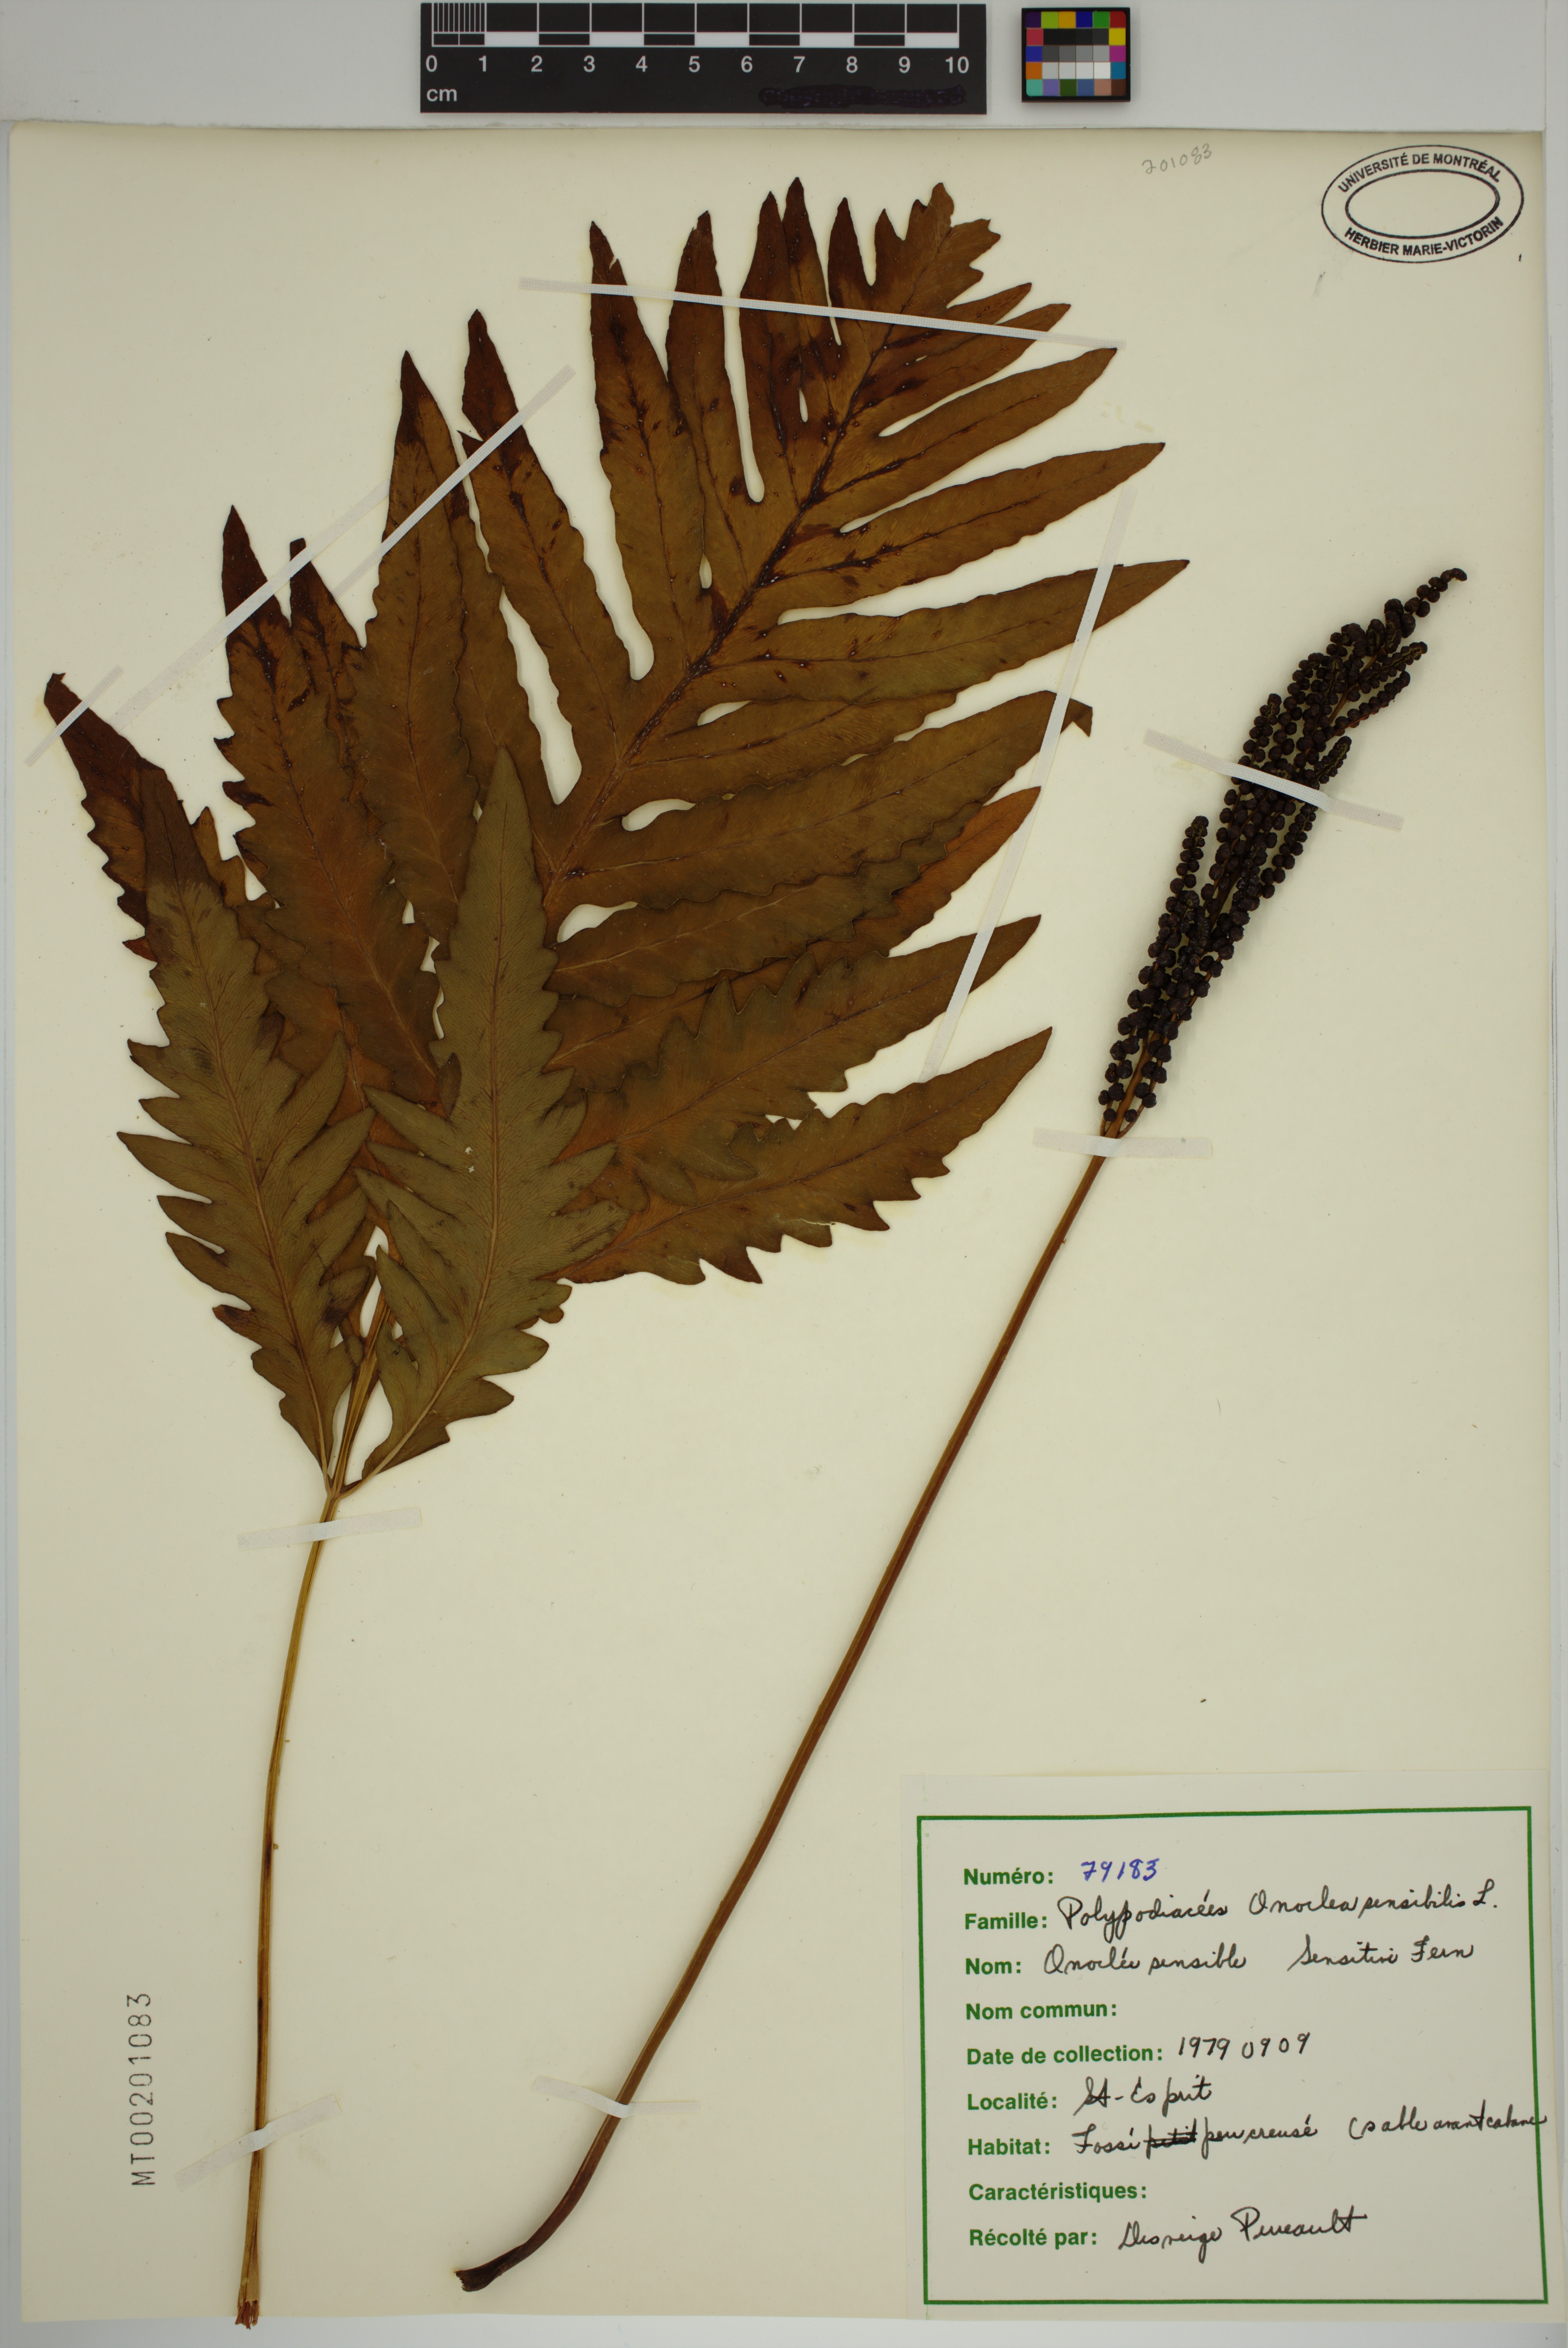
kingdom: Plantae
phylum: Tracheophyta
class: Polypodiopsida
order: Polypodiales
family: Onocleaceae
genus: Onoclea
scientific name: Onoclea sensibilis
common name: Sensitive fern
